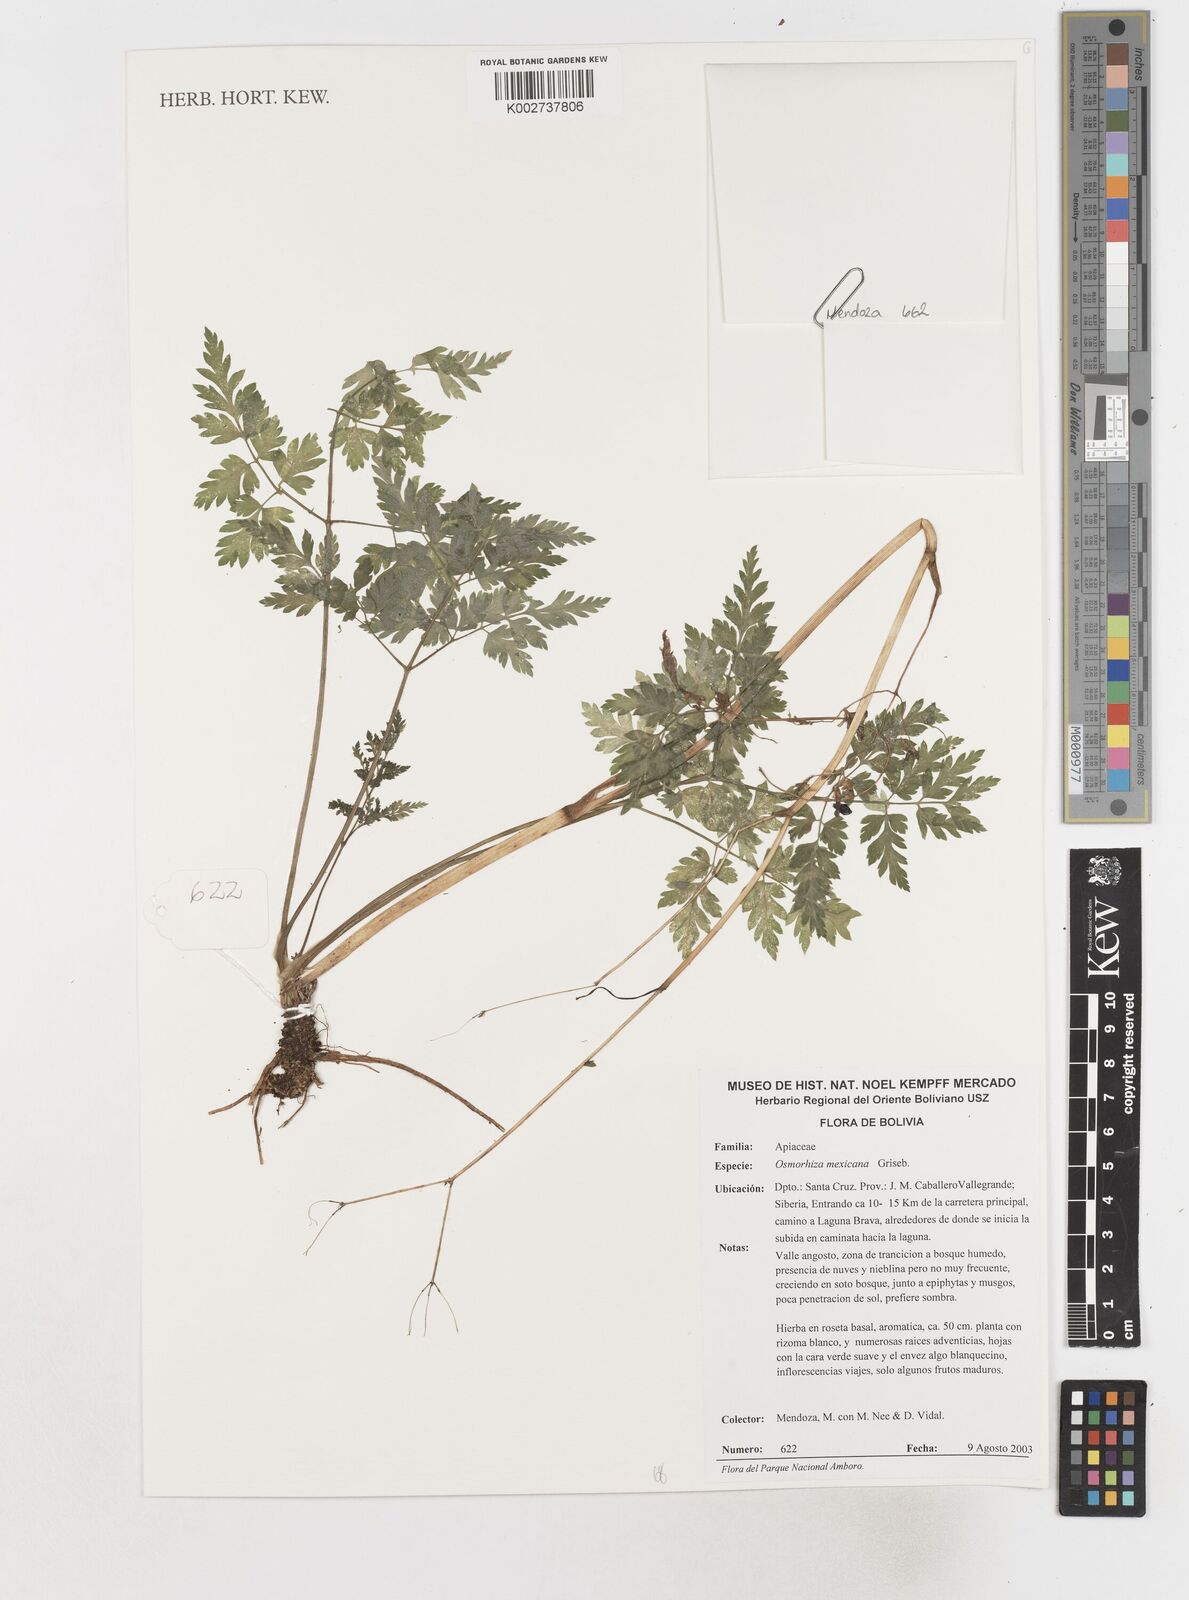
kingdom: Plantae
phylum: Tracheophyta
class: Magnoliopsida
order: Apiales
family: Apiaceae
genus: Osmorhiza
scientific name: Osmorhiza mexicana
